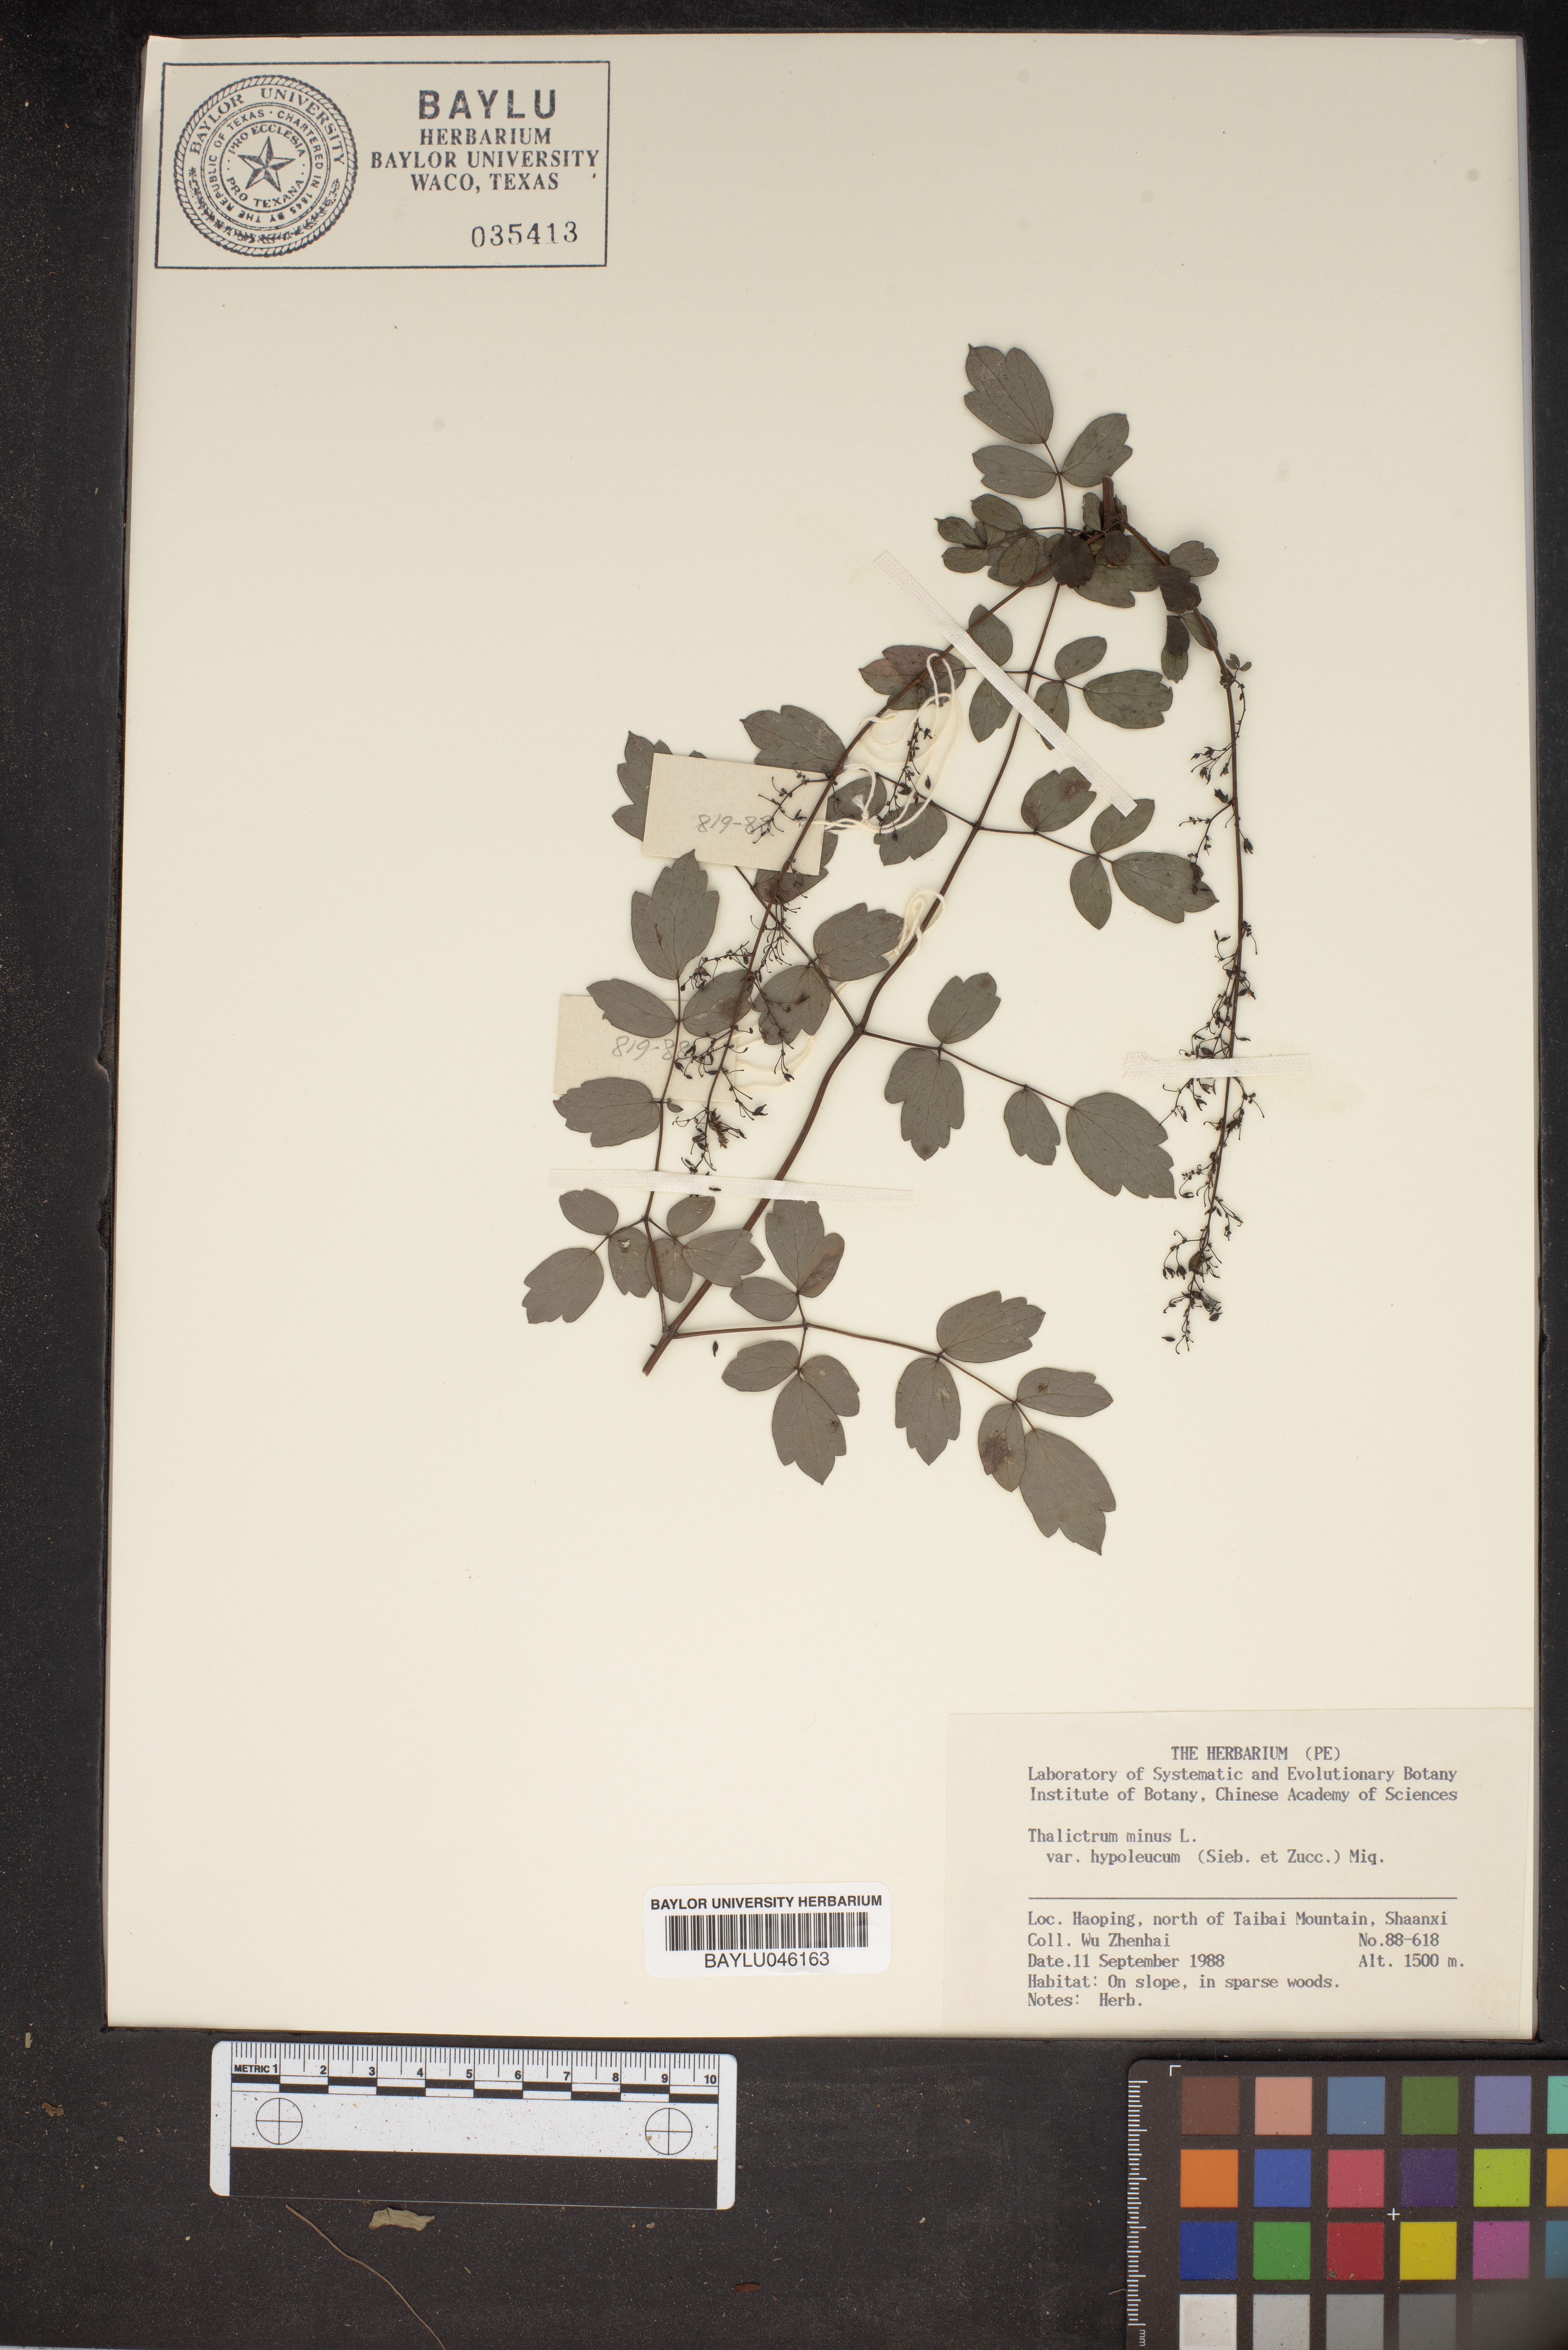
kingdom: Plantae
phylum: Tracheophyta
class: Magnoliopsida
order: Ranunculales
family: Ranunculaceae
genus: Thalictrum
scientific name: Thalictrum minus
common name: Lesser meadow-rue
